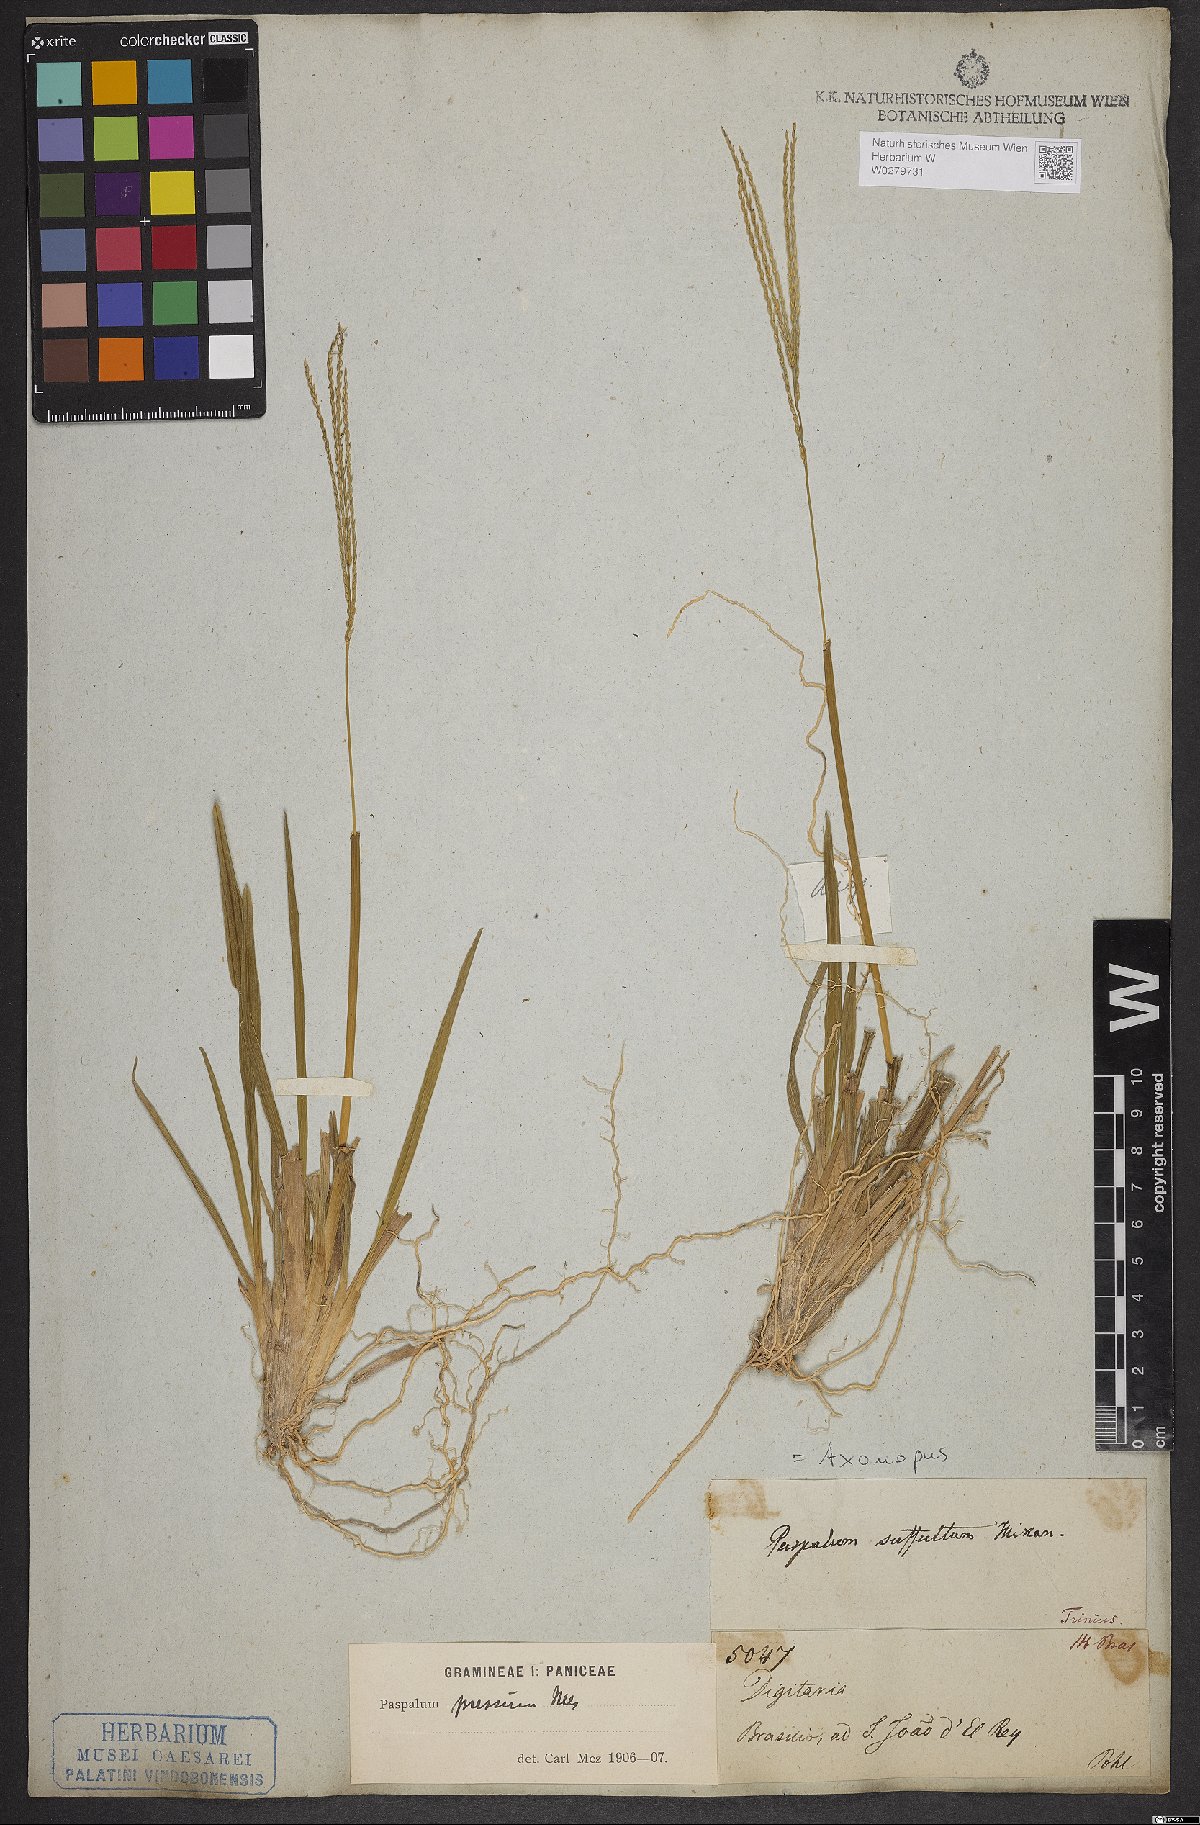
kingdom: Plantae
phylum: Tracheophyta
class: Liliopsida
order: Poales
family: Poaceae
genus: Axonopus
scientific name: Axonopus pressus
